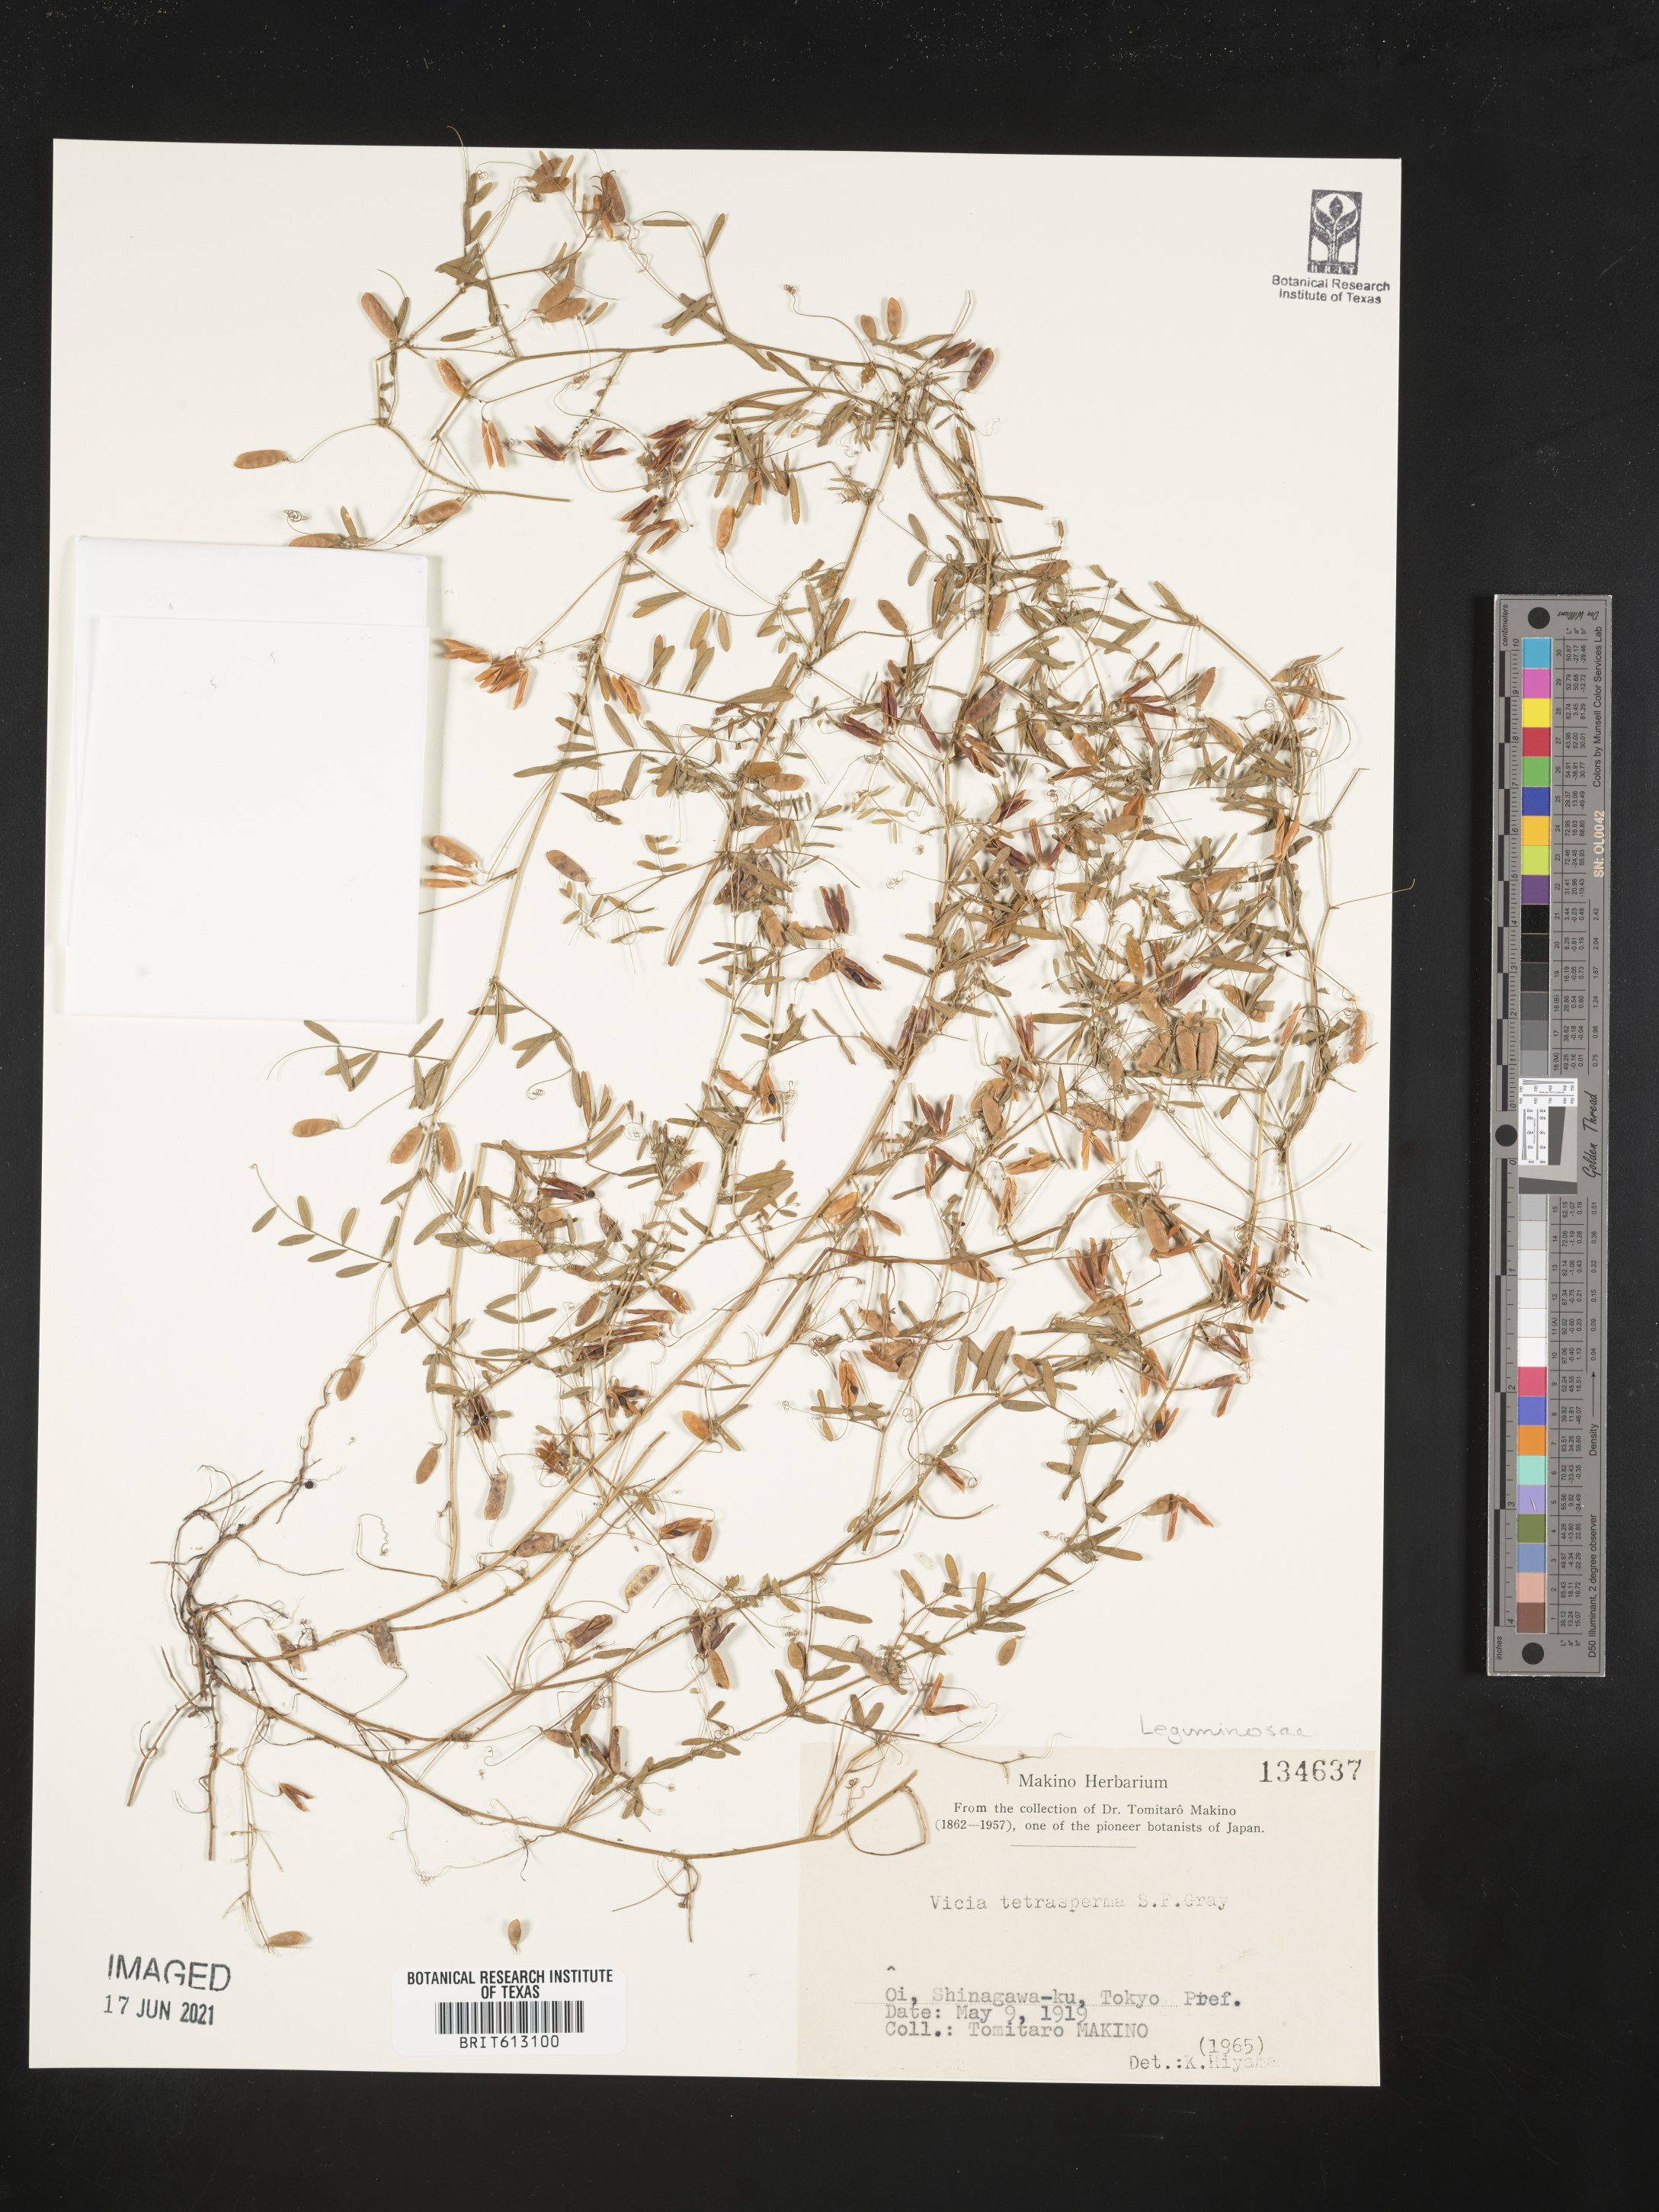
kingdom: Plantae
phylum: Tracheophyta
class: Magnoliopsida
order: Fabales
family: Fabaceae
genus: Vicia
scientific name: Vicia tetrasperma
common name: Smooth tare
